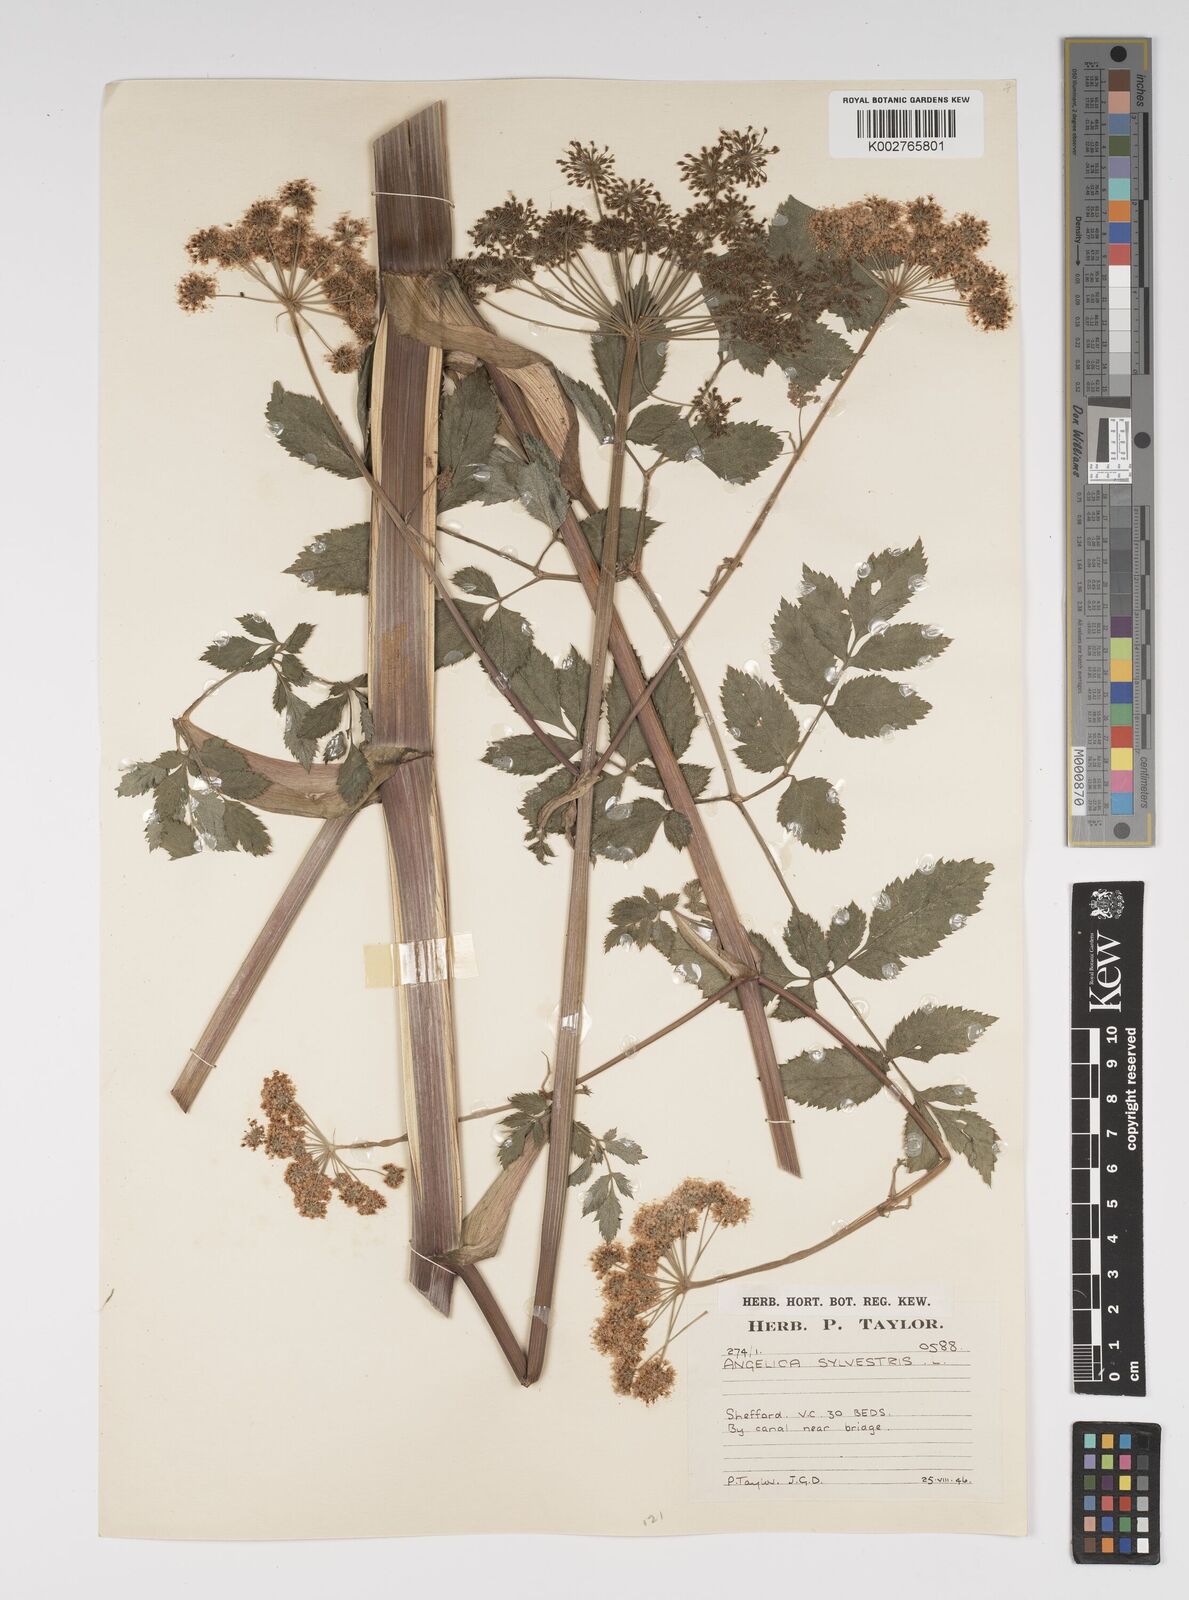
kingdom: Plantae
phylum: Tracheophyta
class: Magnoliopsida
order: Apiales
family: Apiaceae
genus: Angelica
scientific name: Angelica sylvestris
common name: Wild angelica
